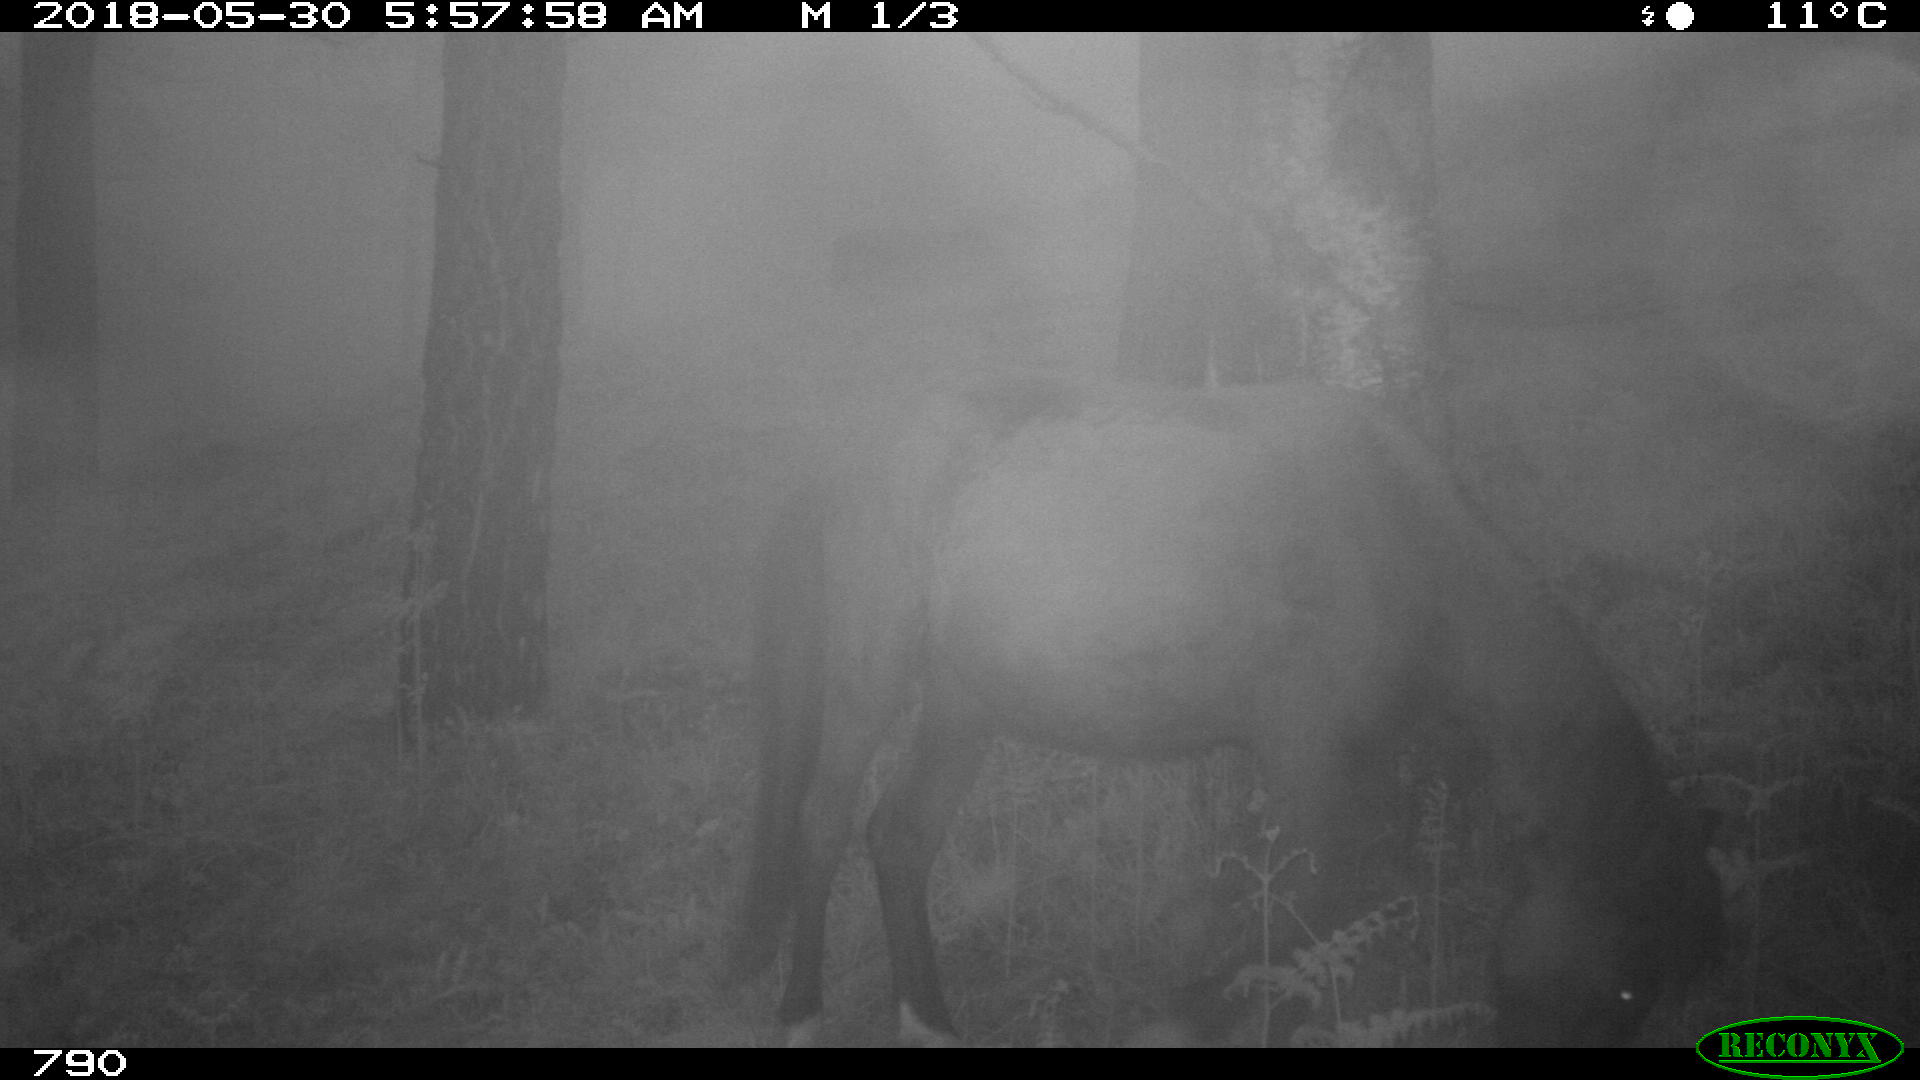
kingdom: Animalia
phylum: Chordata
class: Mammalia
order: Perissodactyla
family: Equidae
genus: Equus
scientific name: Equus caballus
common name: Horse
